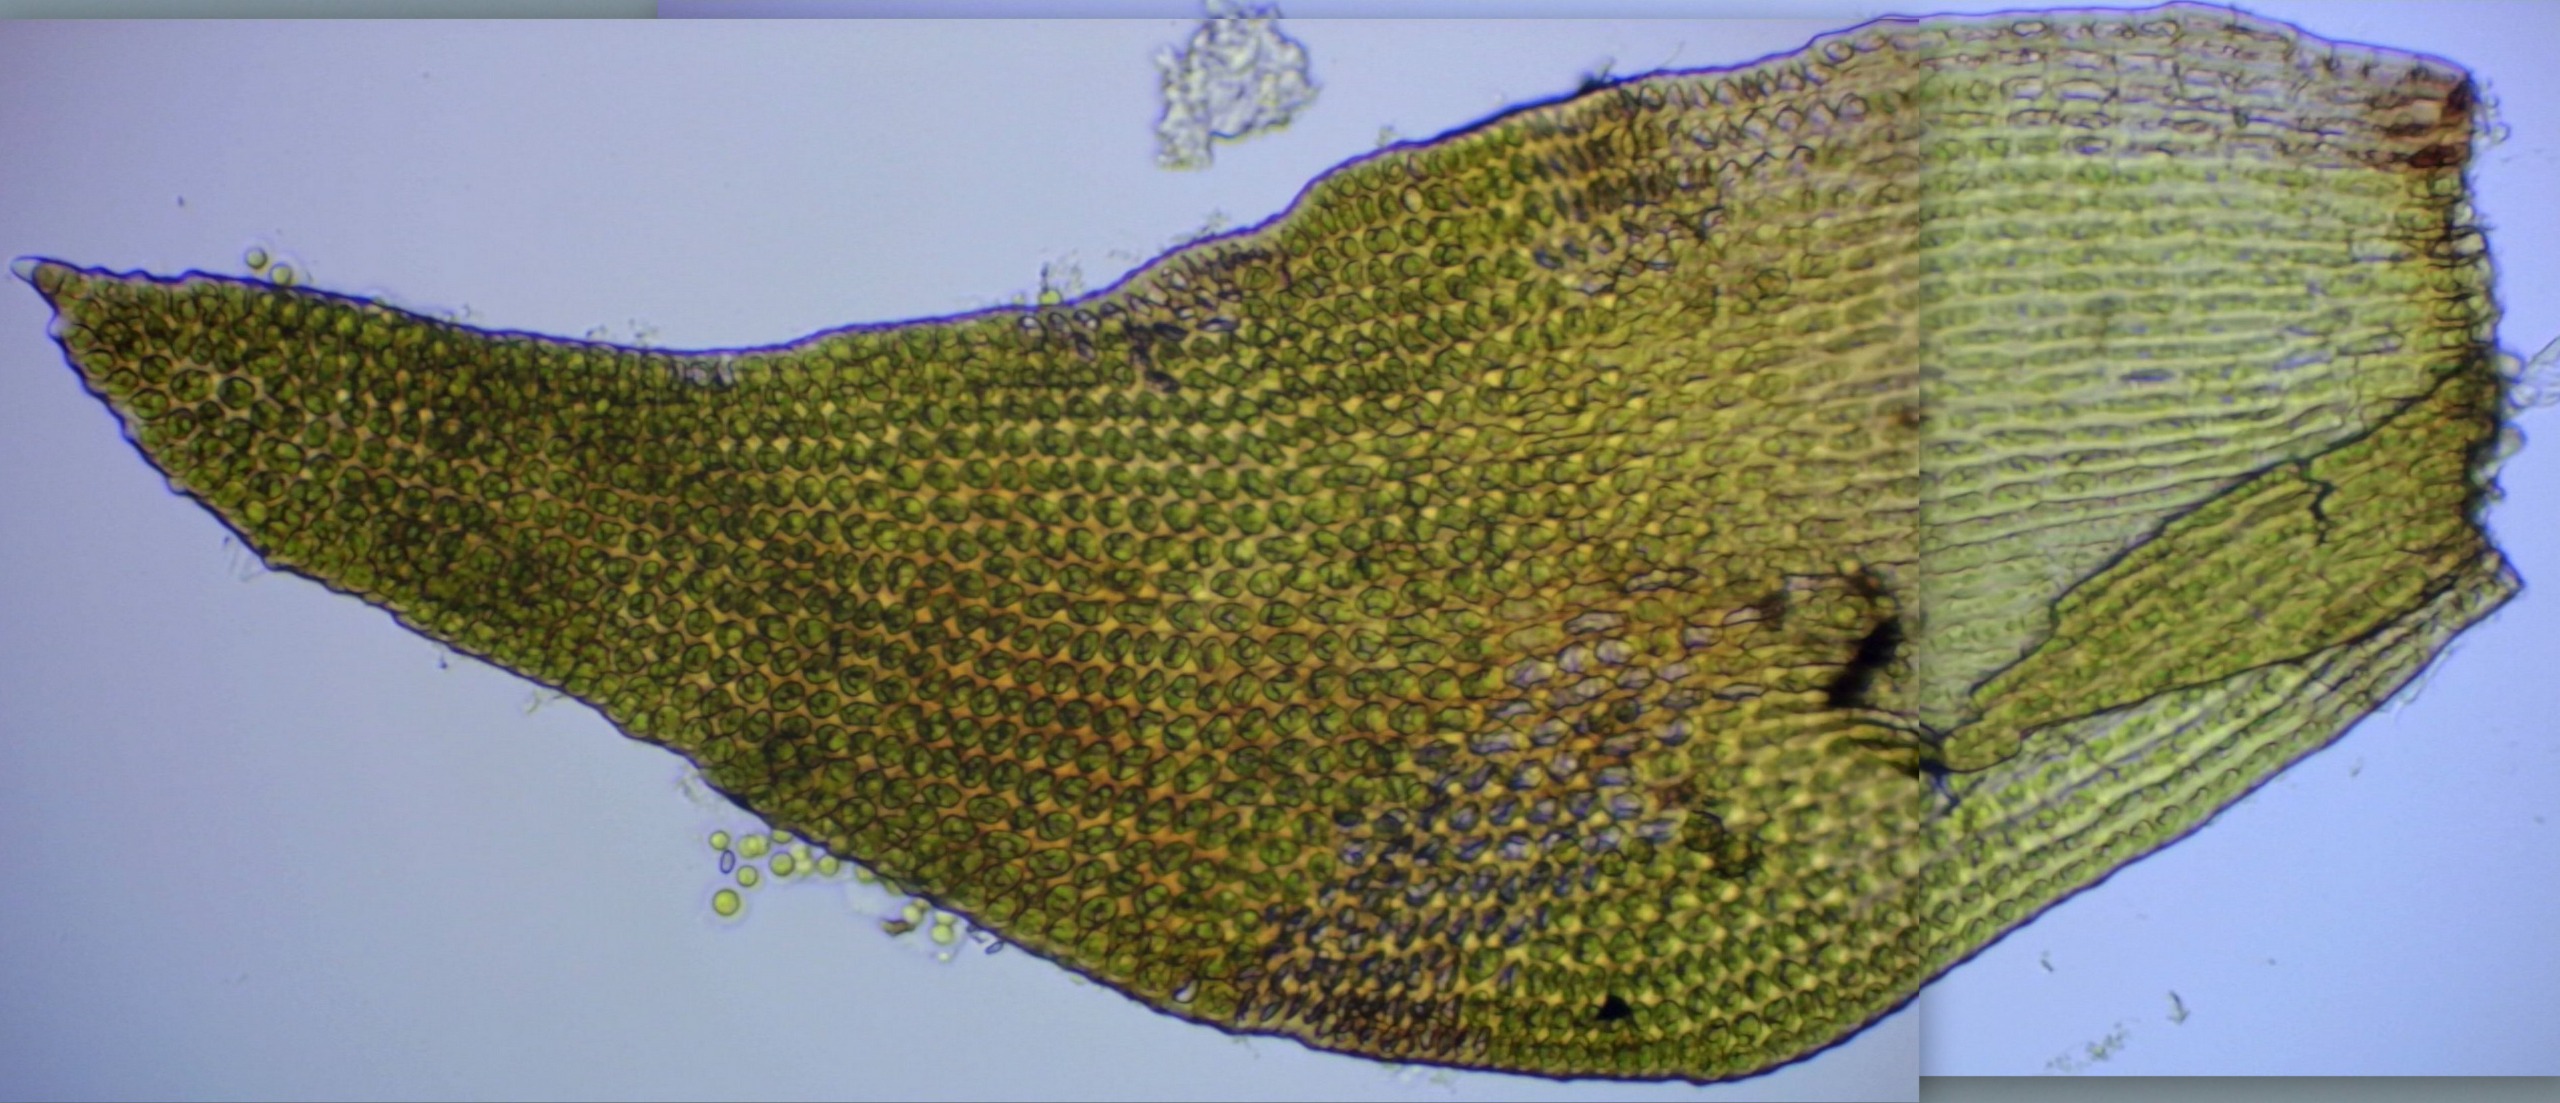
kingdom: Plantae
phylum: Bryophyta
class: Andreaeopsida
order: Andreaeales
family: Andreaeaceae
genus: Andreaea
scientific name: Andreaea rupestris
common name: Lille sortmos
